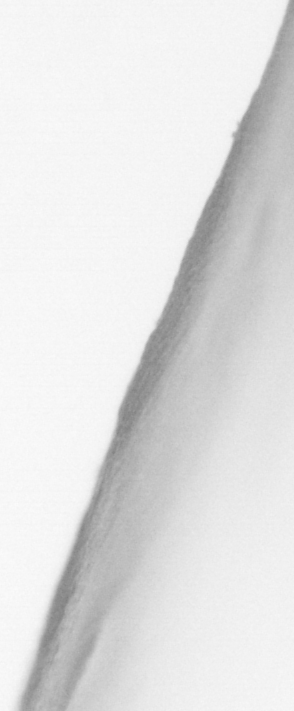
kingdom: Animalia
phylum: Chordata
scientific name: Chordata
